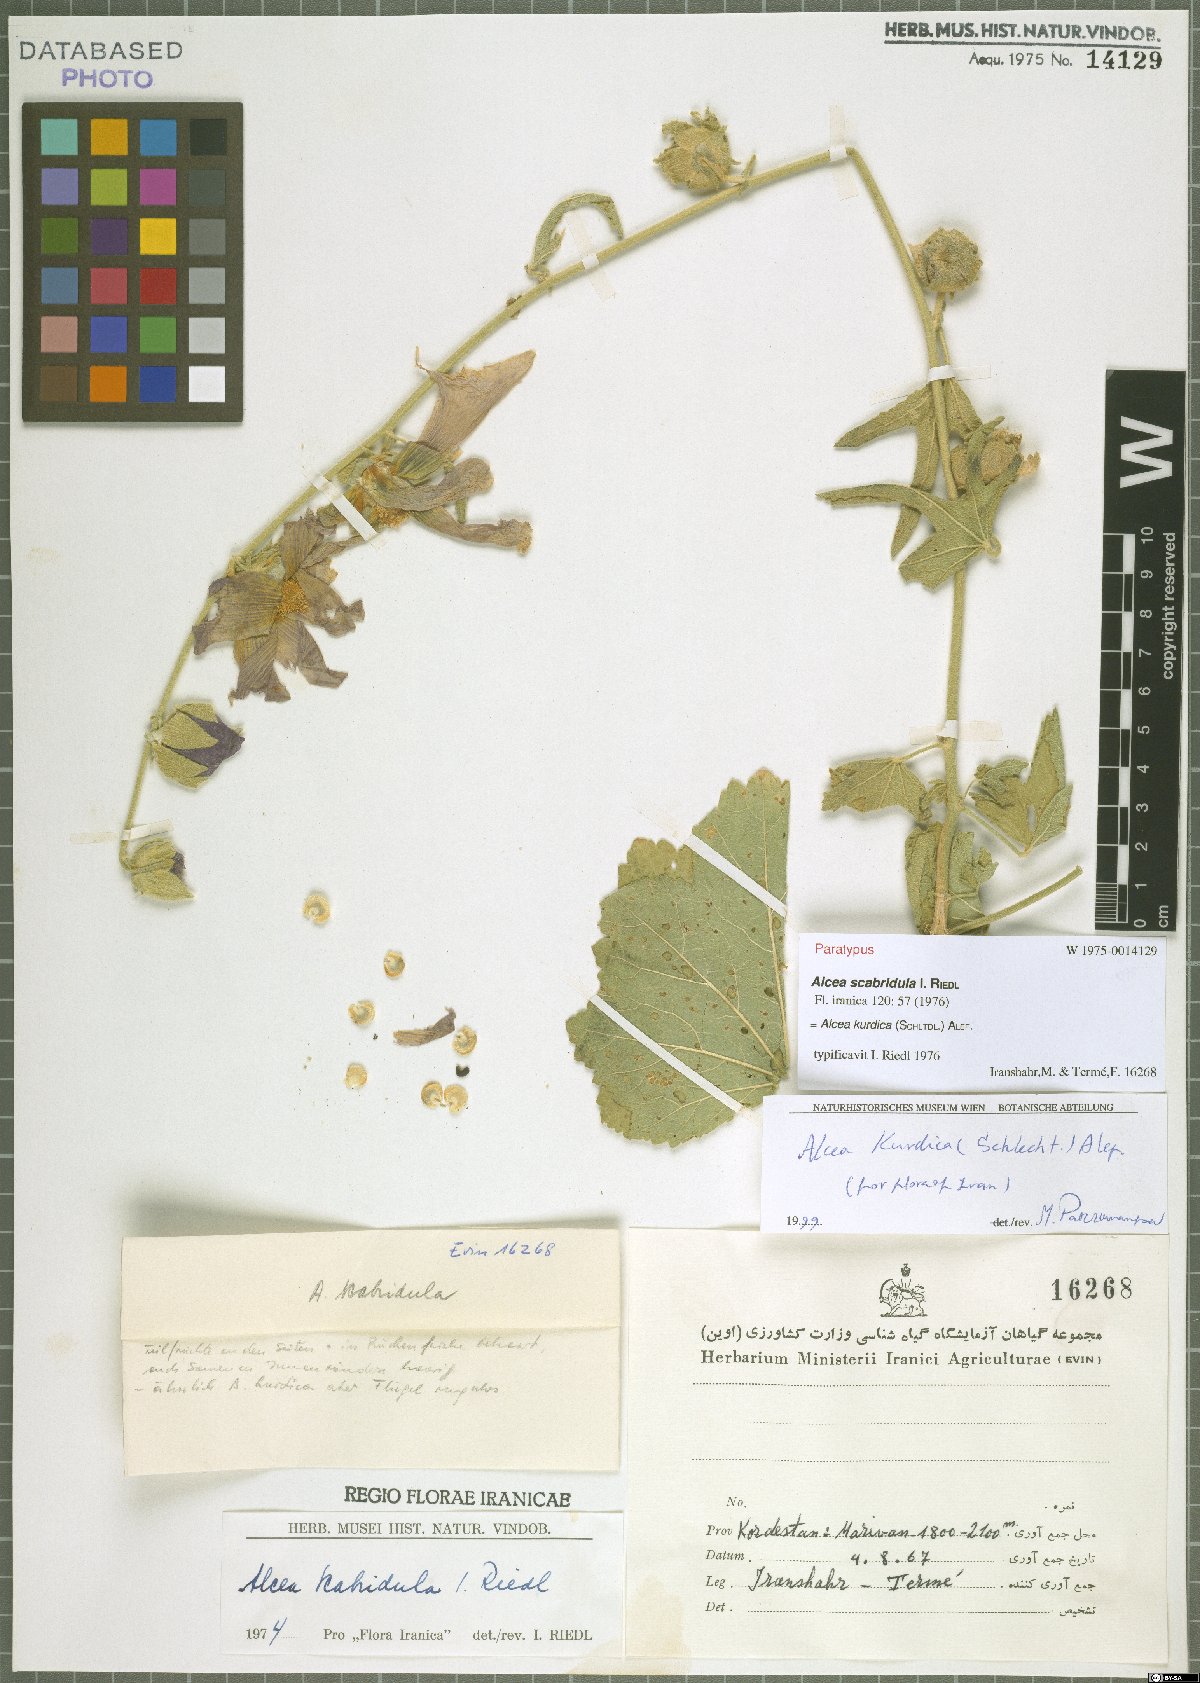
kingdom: Plantae
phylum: Tracheophyta
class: Magnoliopsida
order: Malvales
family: Malvaceae
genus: Alcea
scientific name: Alcea kurdica
